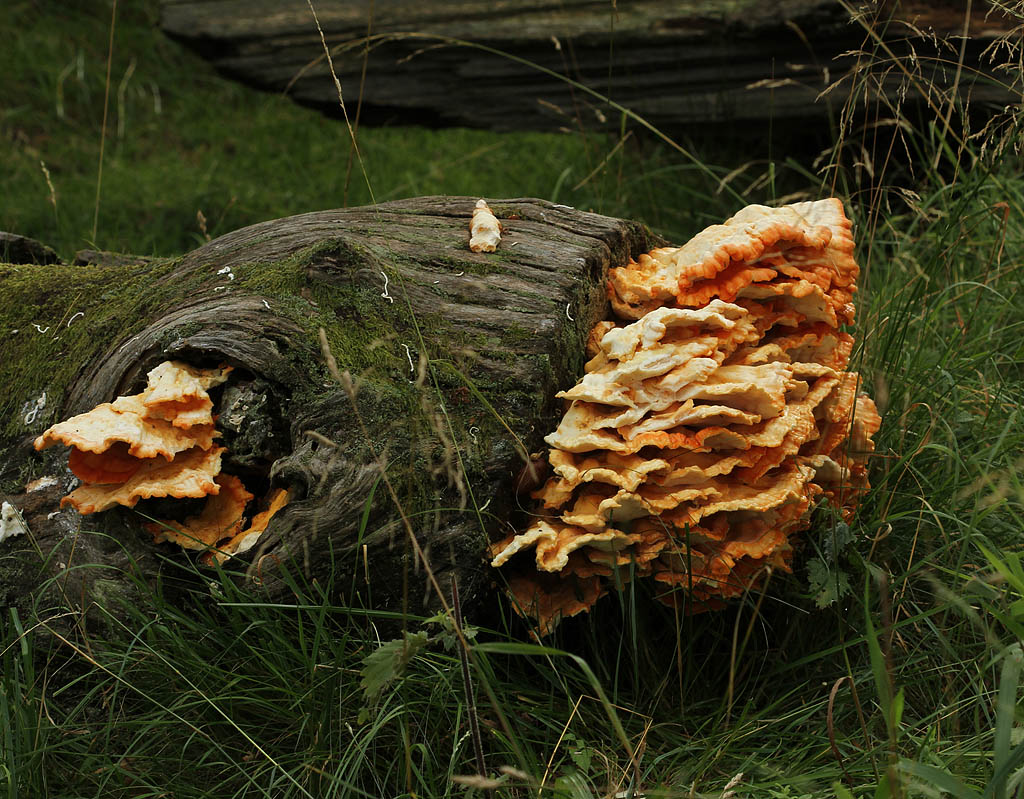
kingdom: Fungi
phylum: Basidiomycota
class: Agaricomycetes
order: Polyporales
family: Laetiporaceae
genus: Laetiporus
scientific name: Laetiporus sulphureus
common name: svovlporesvamp
